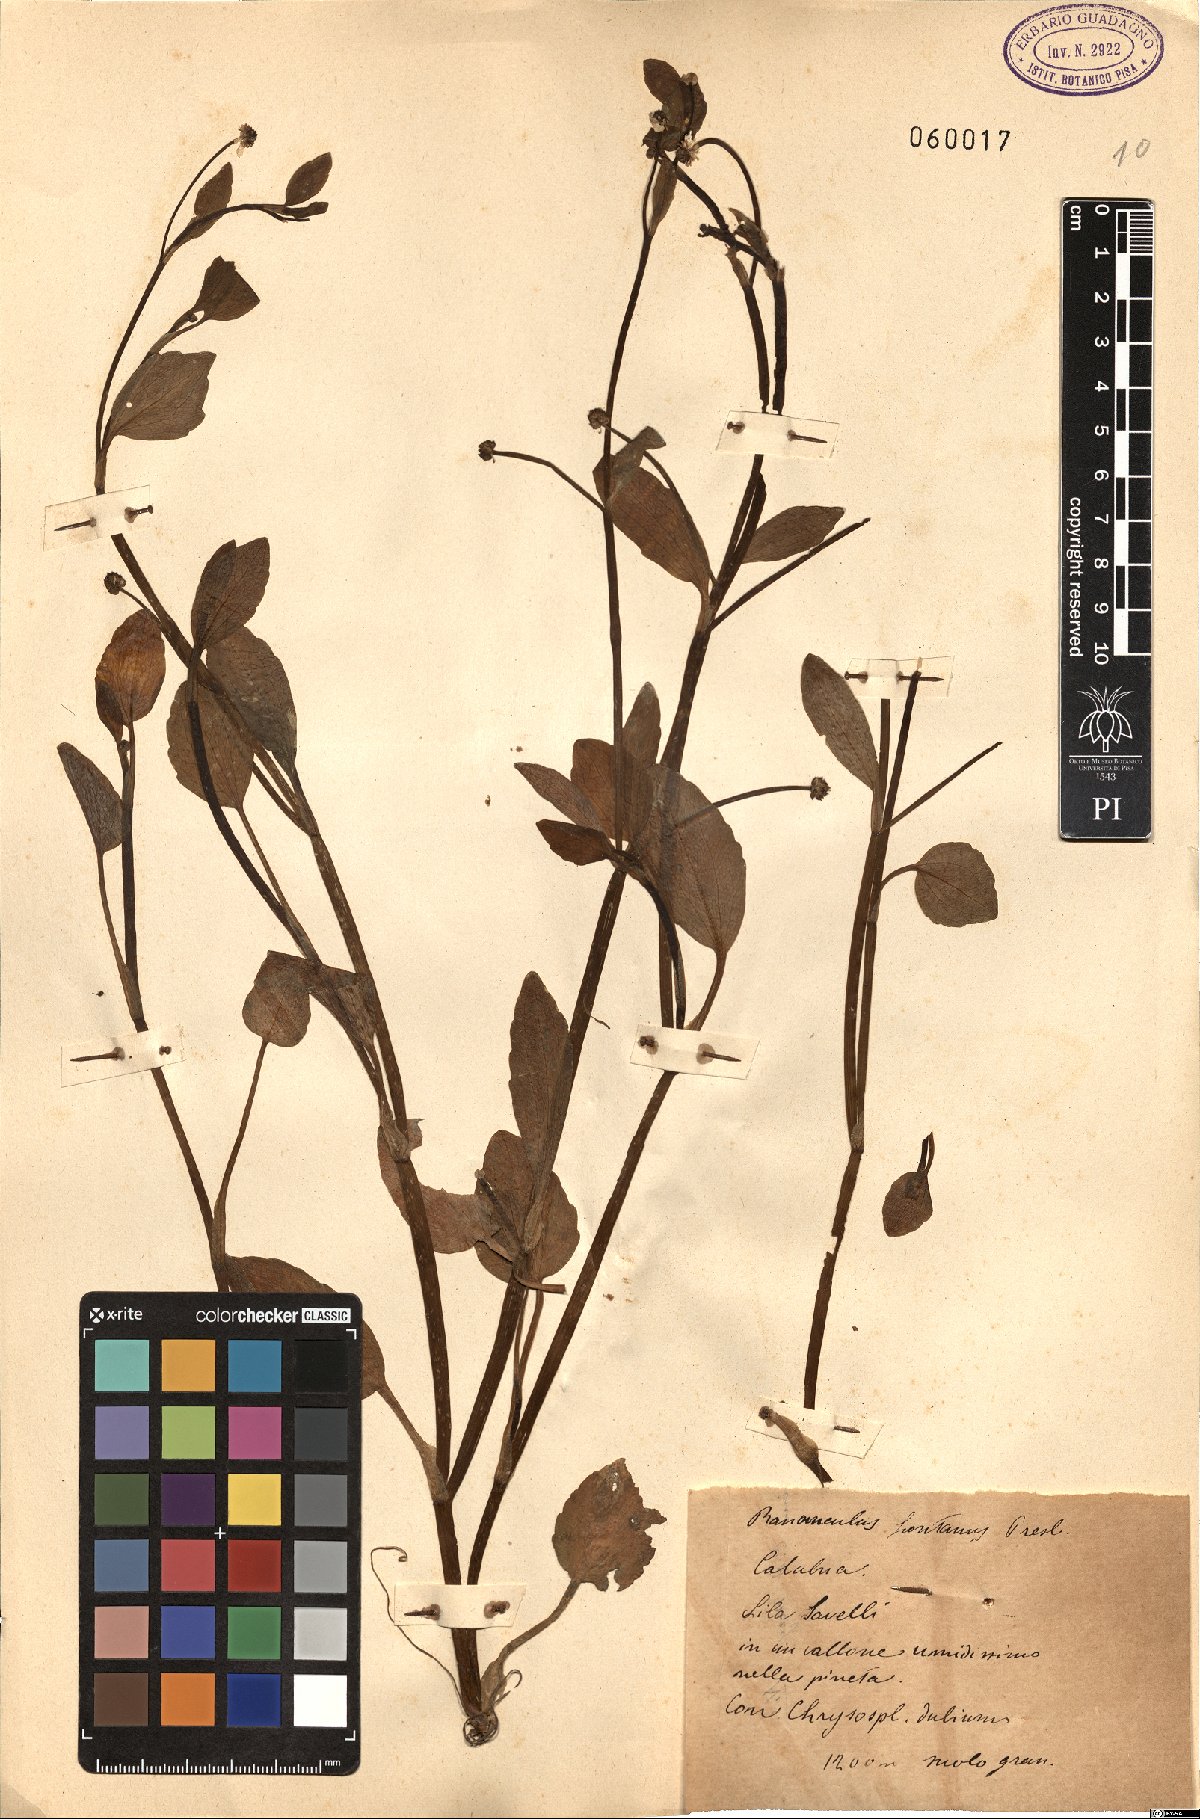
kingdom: Plantae
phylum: Tracheophyta
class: Magnoliopsida
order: Ranunculales
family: Ranunculaceae
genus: Ranunculus
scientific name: Ranunculus fontanus
